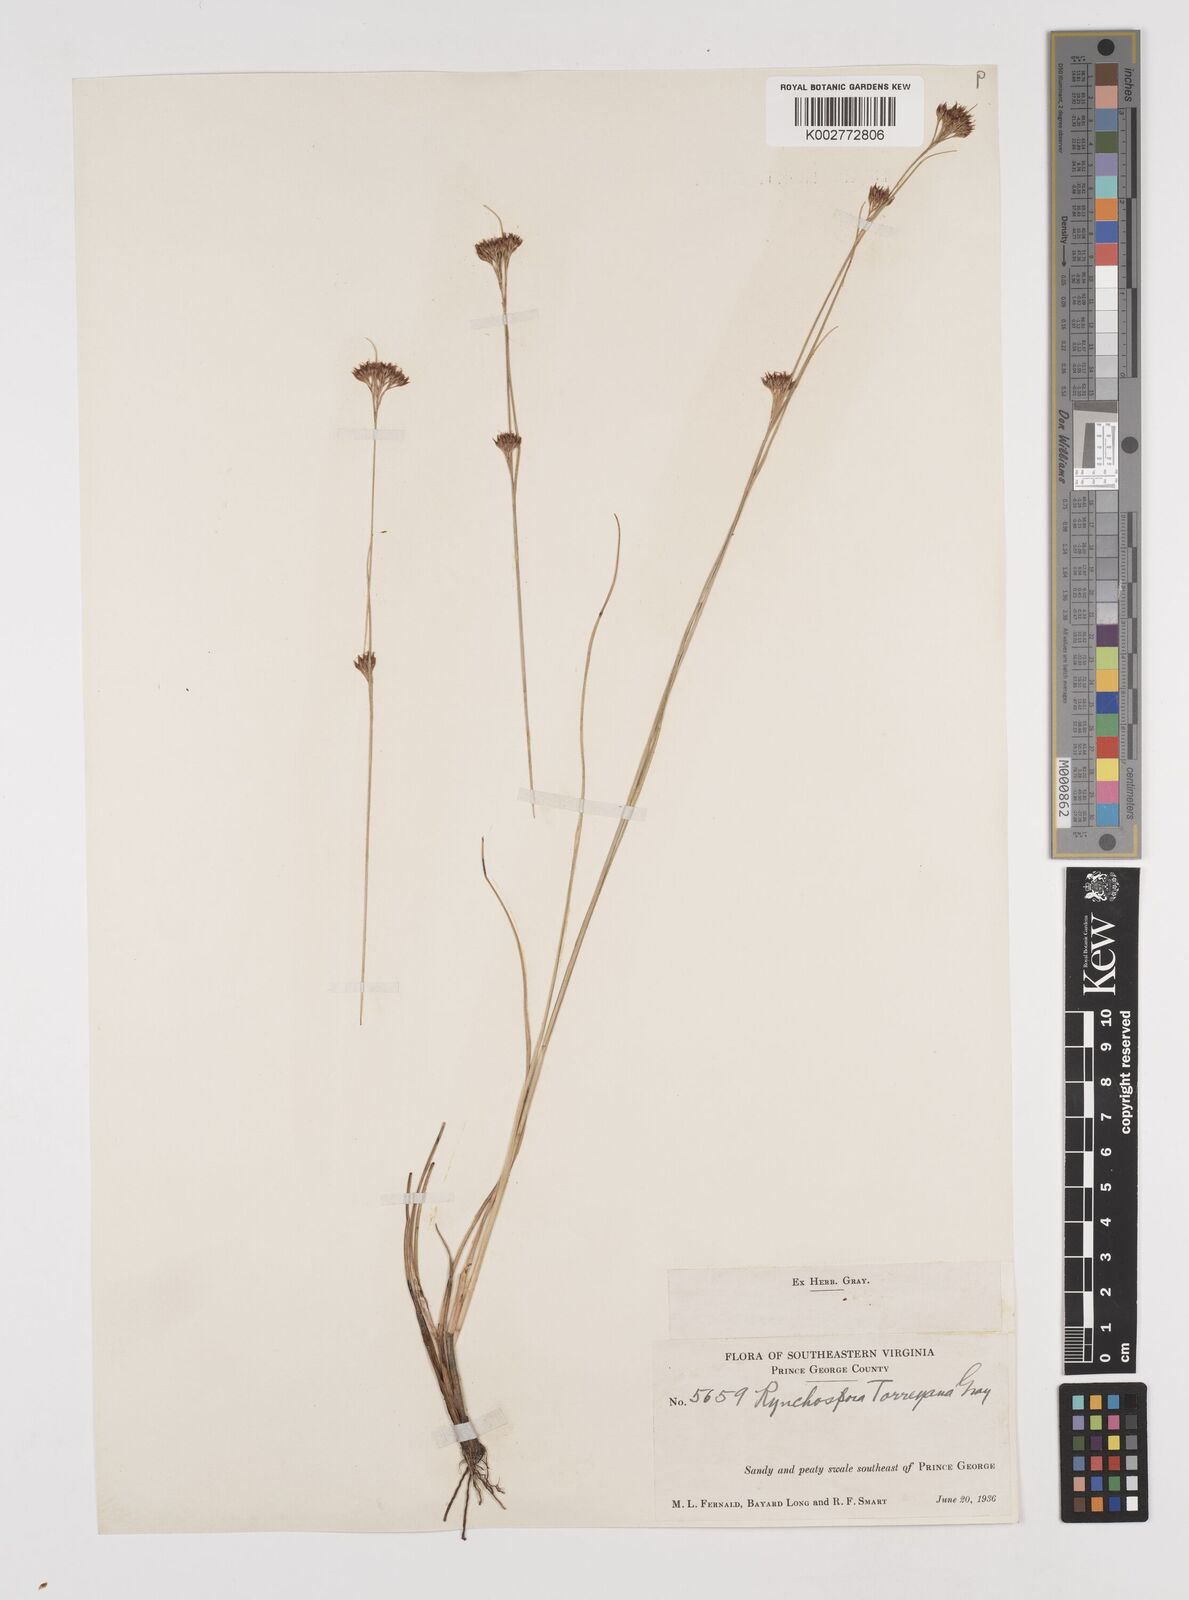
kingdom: Plantae
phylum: Tracheophyta
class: Liliopsida
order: Poales
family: Cyperaceae
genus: Rhynchospora
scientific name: Rhynchospora torreyana
